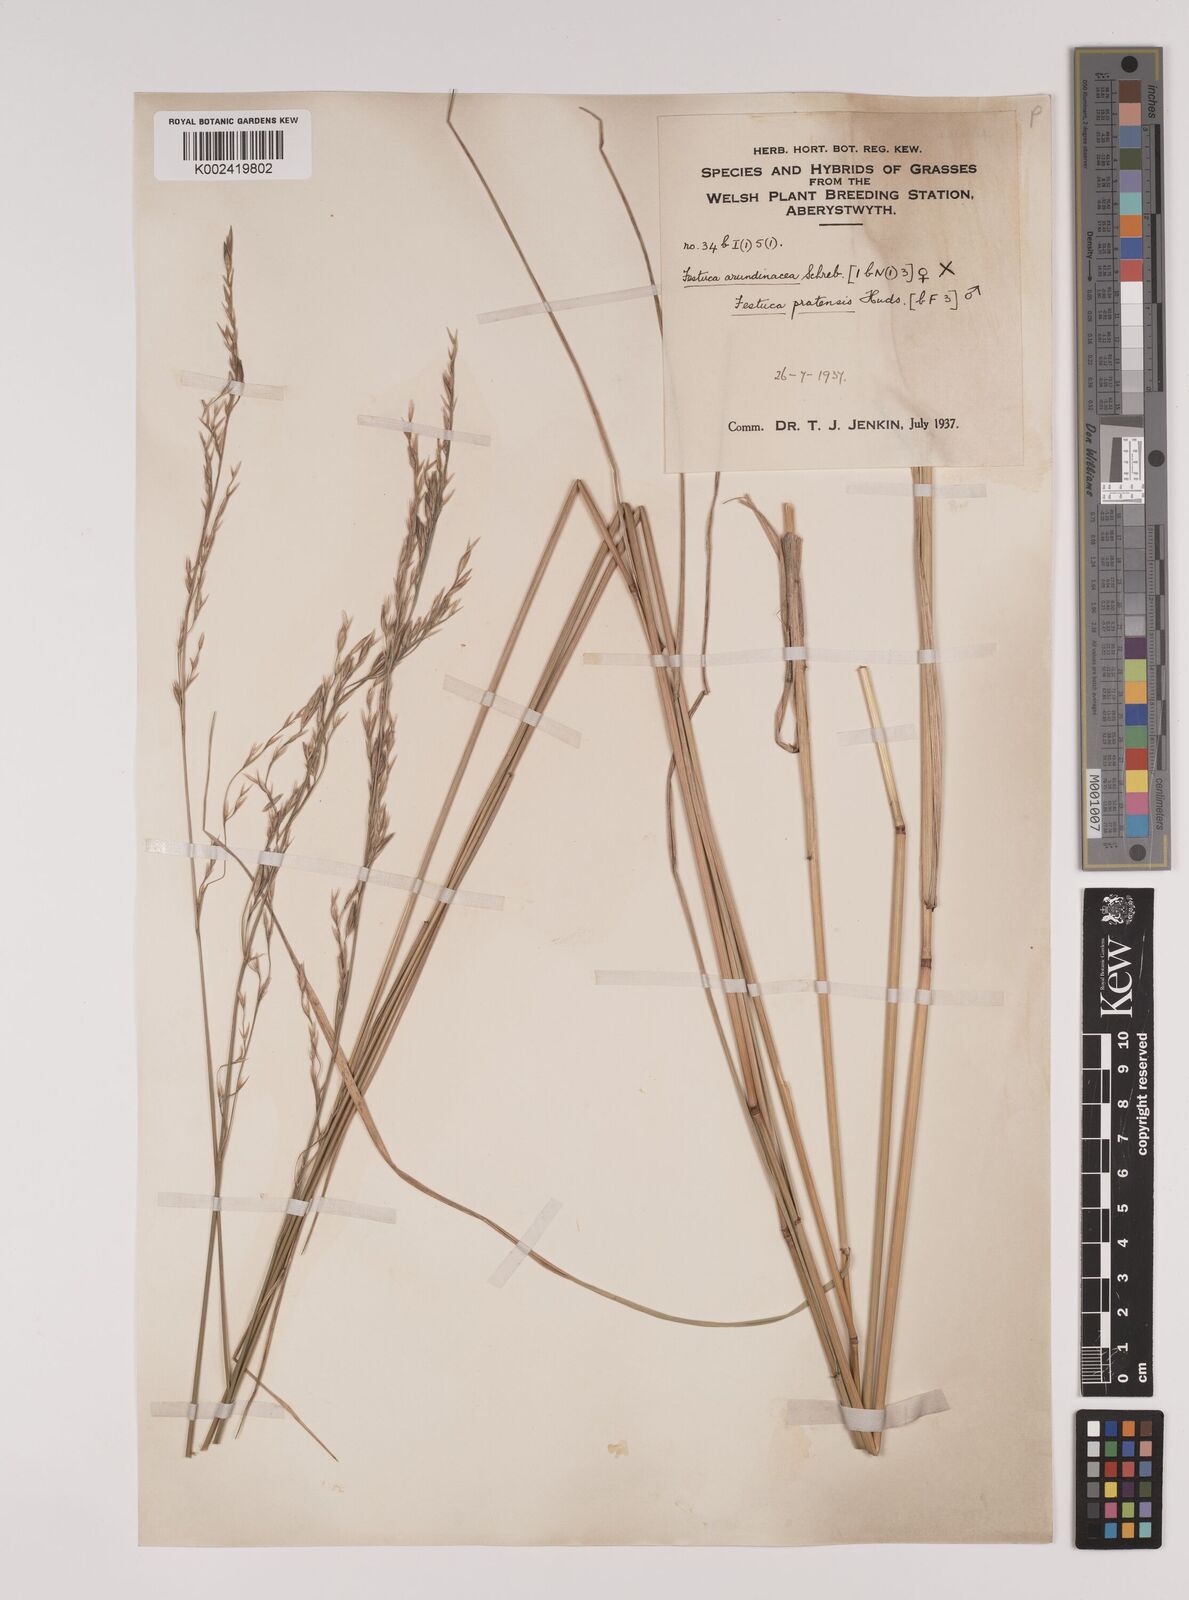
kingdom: Plantae
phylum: Tracheophyta
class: Liliopsida
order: Poales
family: Poaceae
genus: Festuca
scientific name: Festuca rubra
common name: Red fescue
